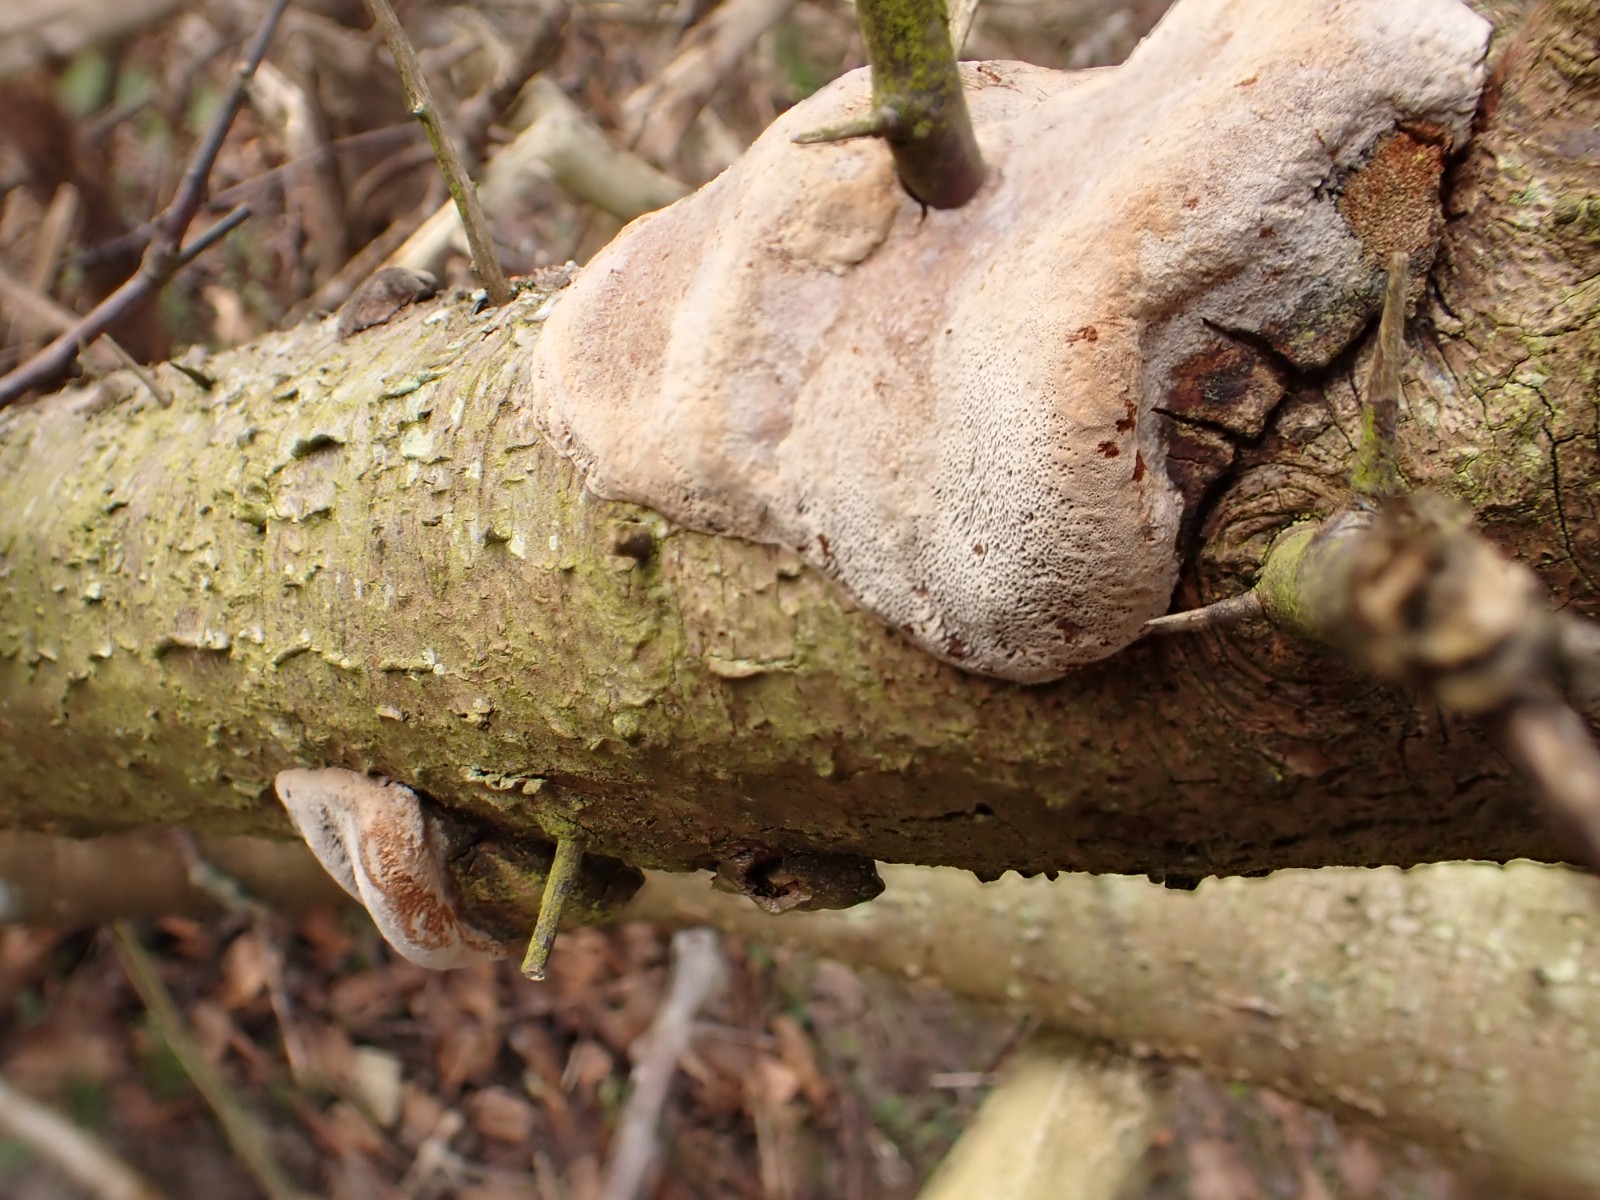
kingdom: Fungi
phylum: Basidiomycota
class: Agaricomycetes
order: Hymenochaetales
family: Hymenochaetaceae
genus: Phellinus
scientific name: Phellinus pomaceus
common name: blomme-ildporesvamp
